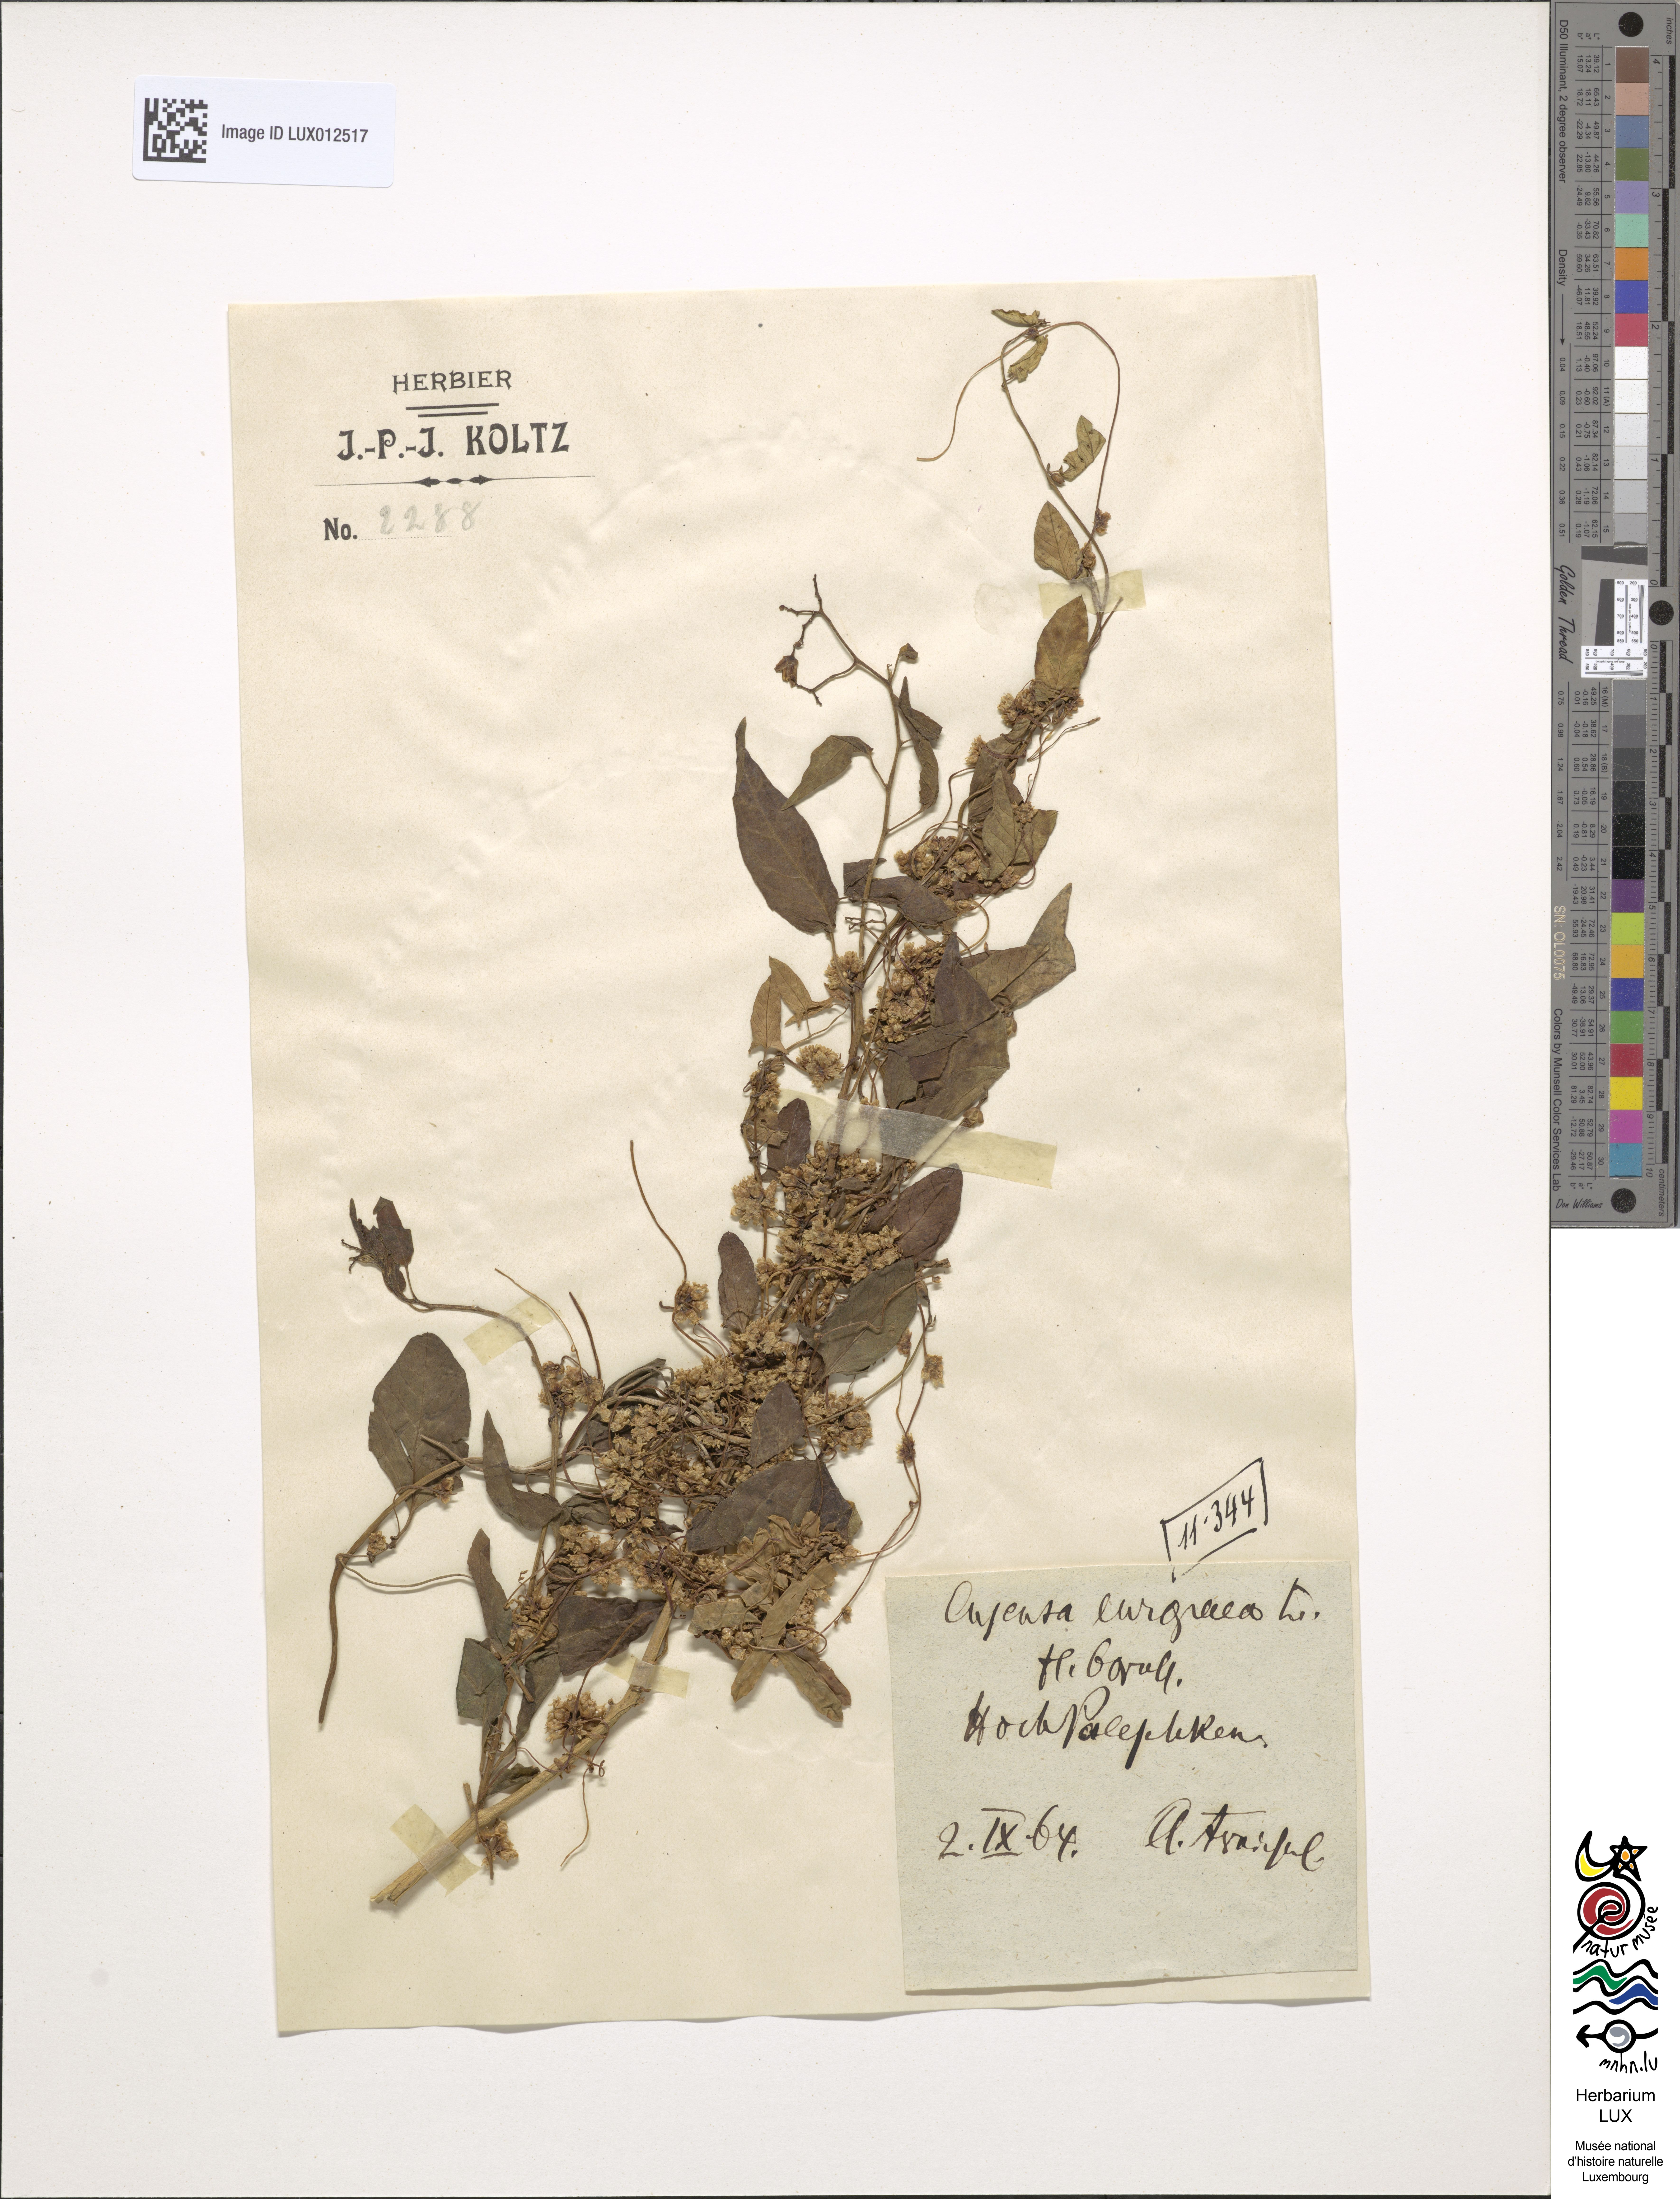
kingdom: Plantae
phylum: Tracheophyta
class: Magnoliopsida
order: Solanales
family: Convolvulaceae
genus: Cuscuta
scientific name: Cuscuta europaea
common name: Greater dodder
